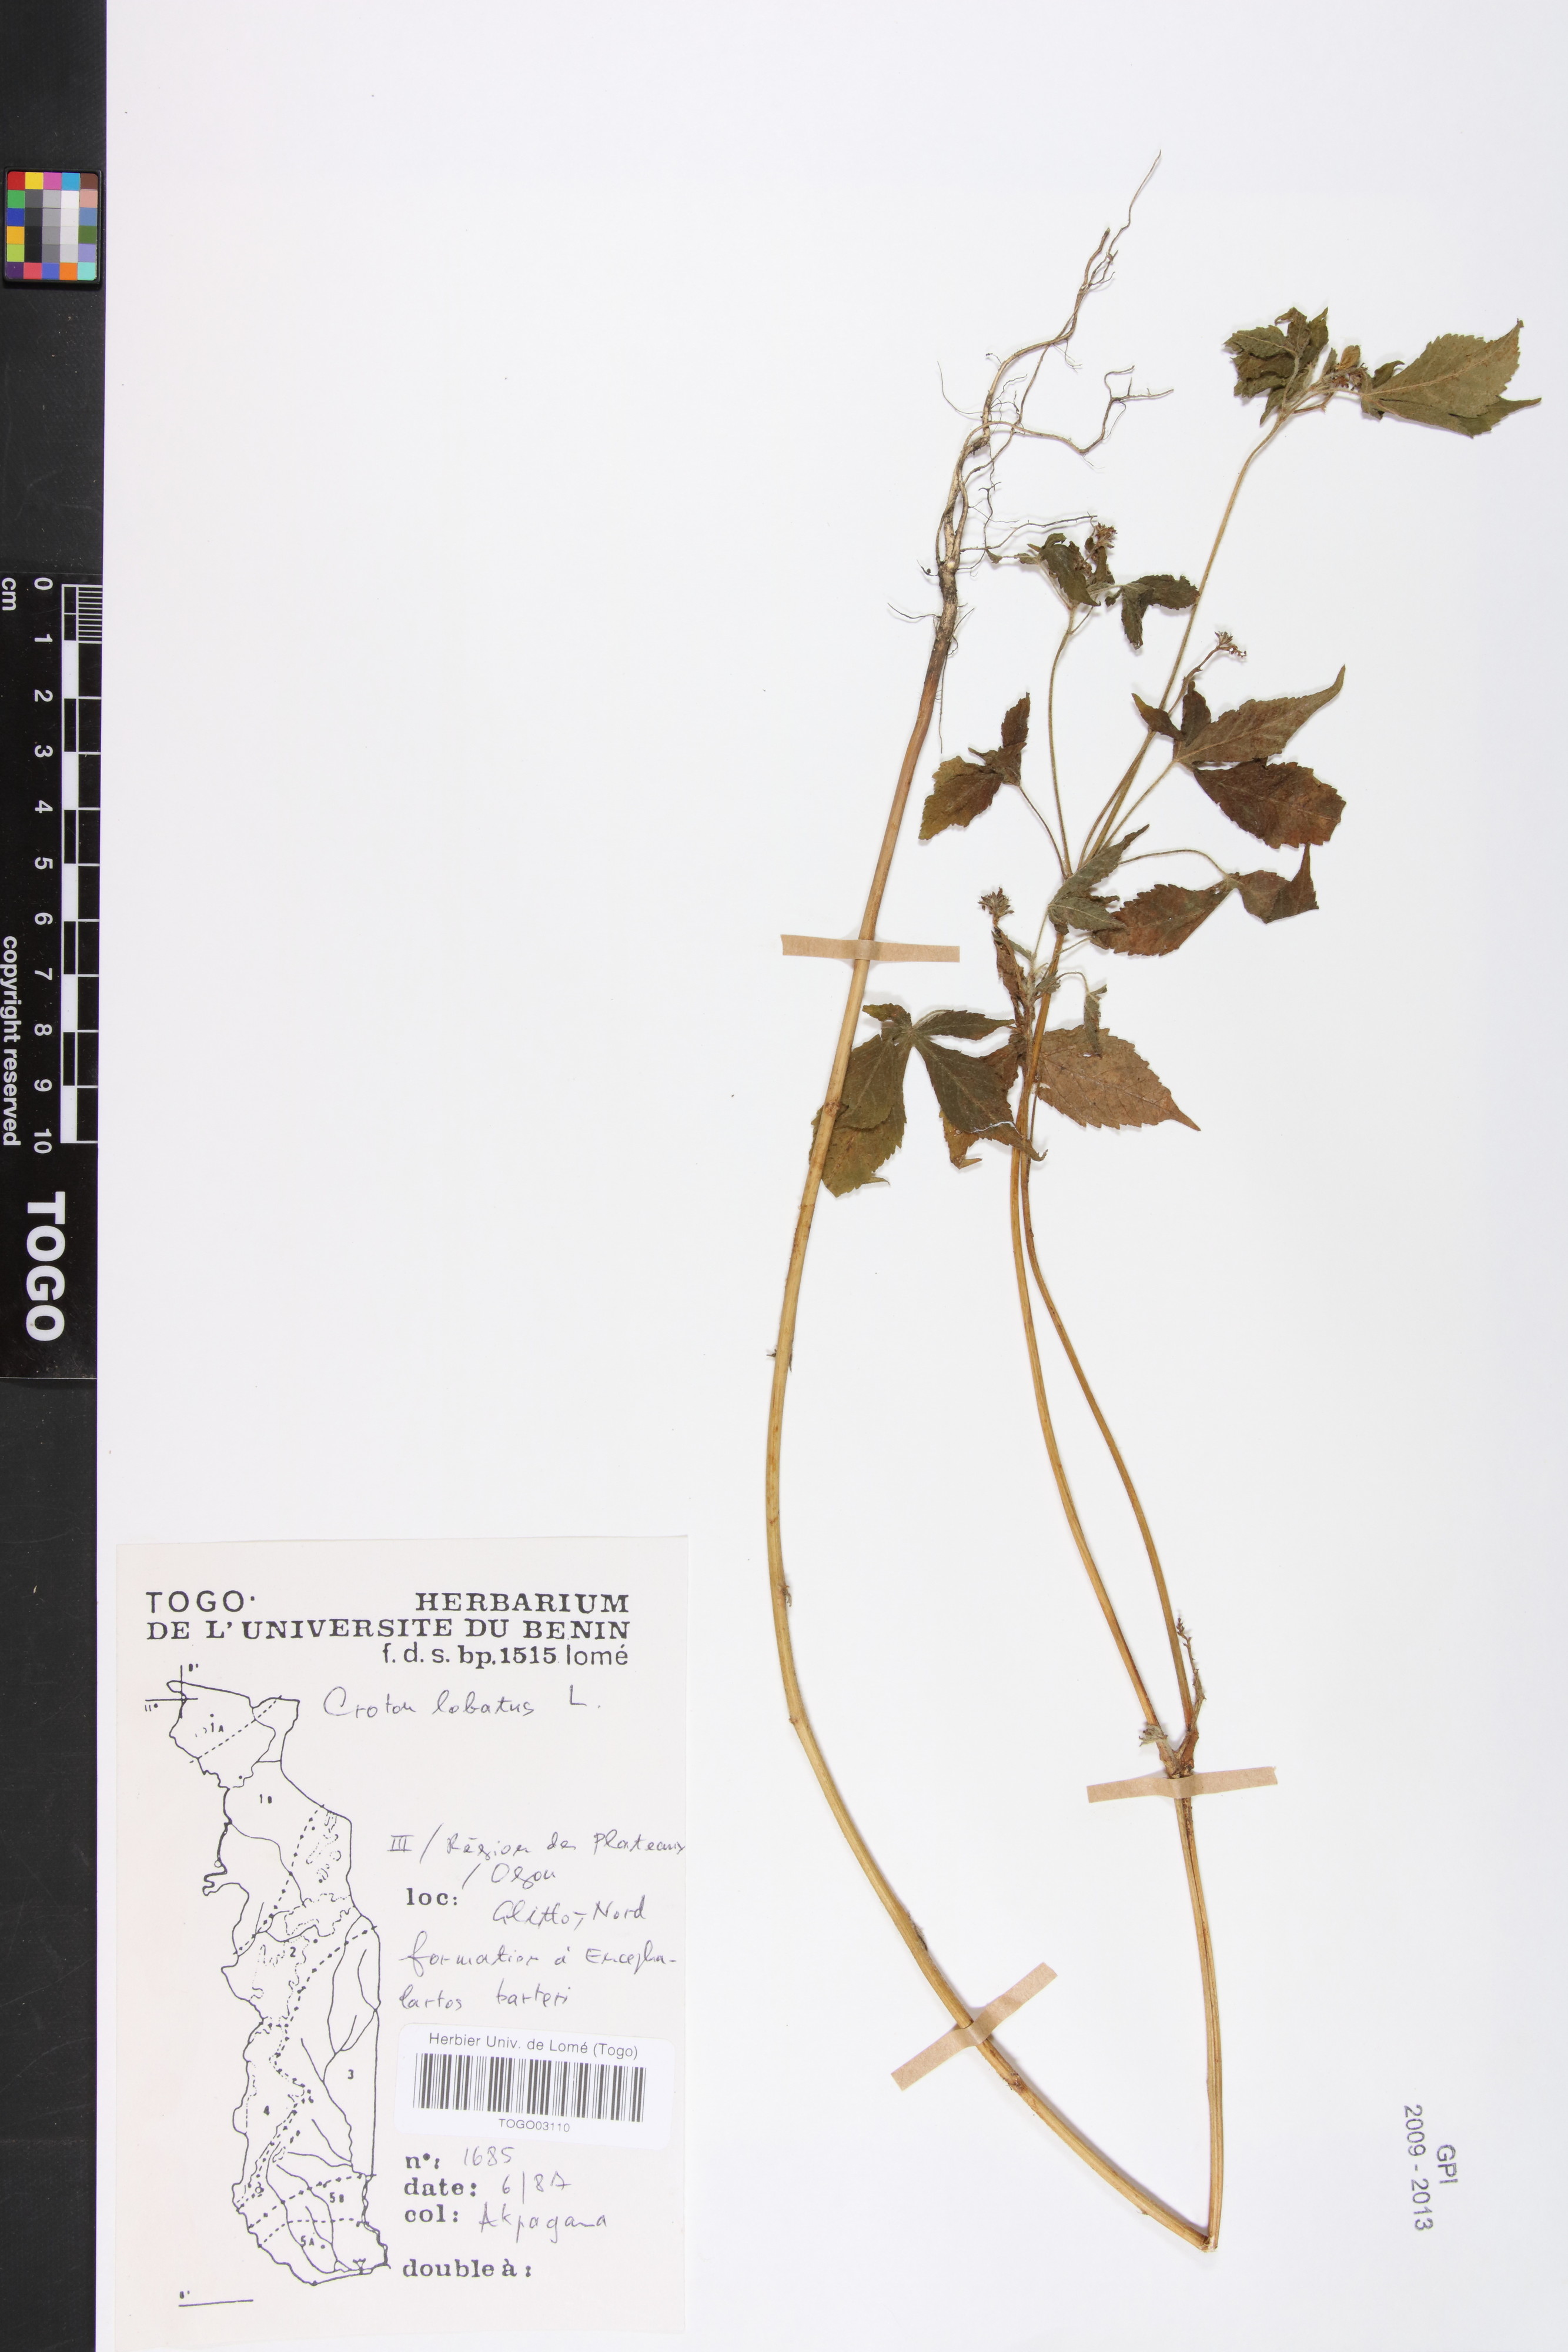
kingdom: Plantae
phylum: Tracheophyta
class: Magnoliopsida
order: Malpighiales
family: Euphorbiaceae
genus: Astraea
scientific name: Astraea lobata
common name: Lobed croton
